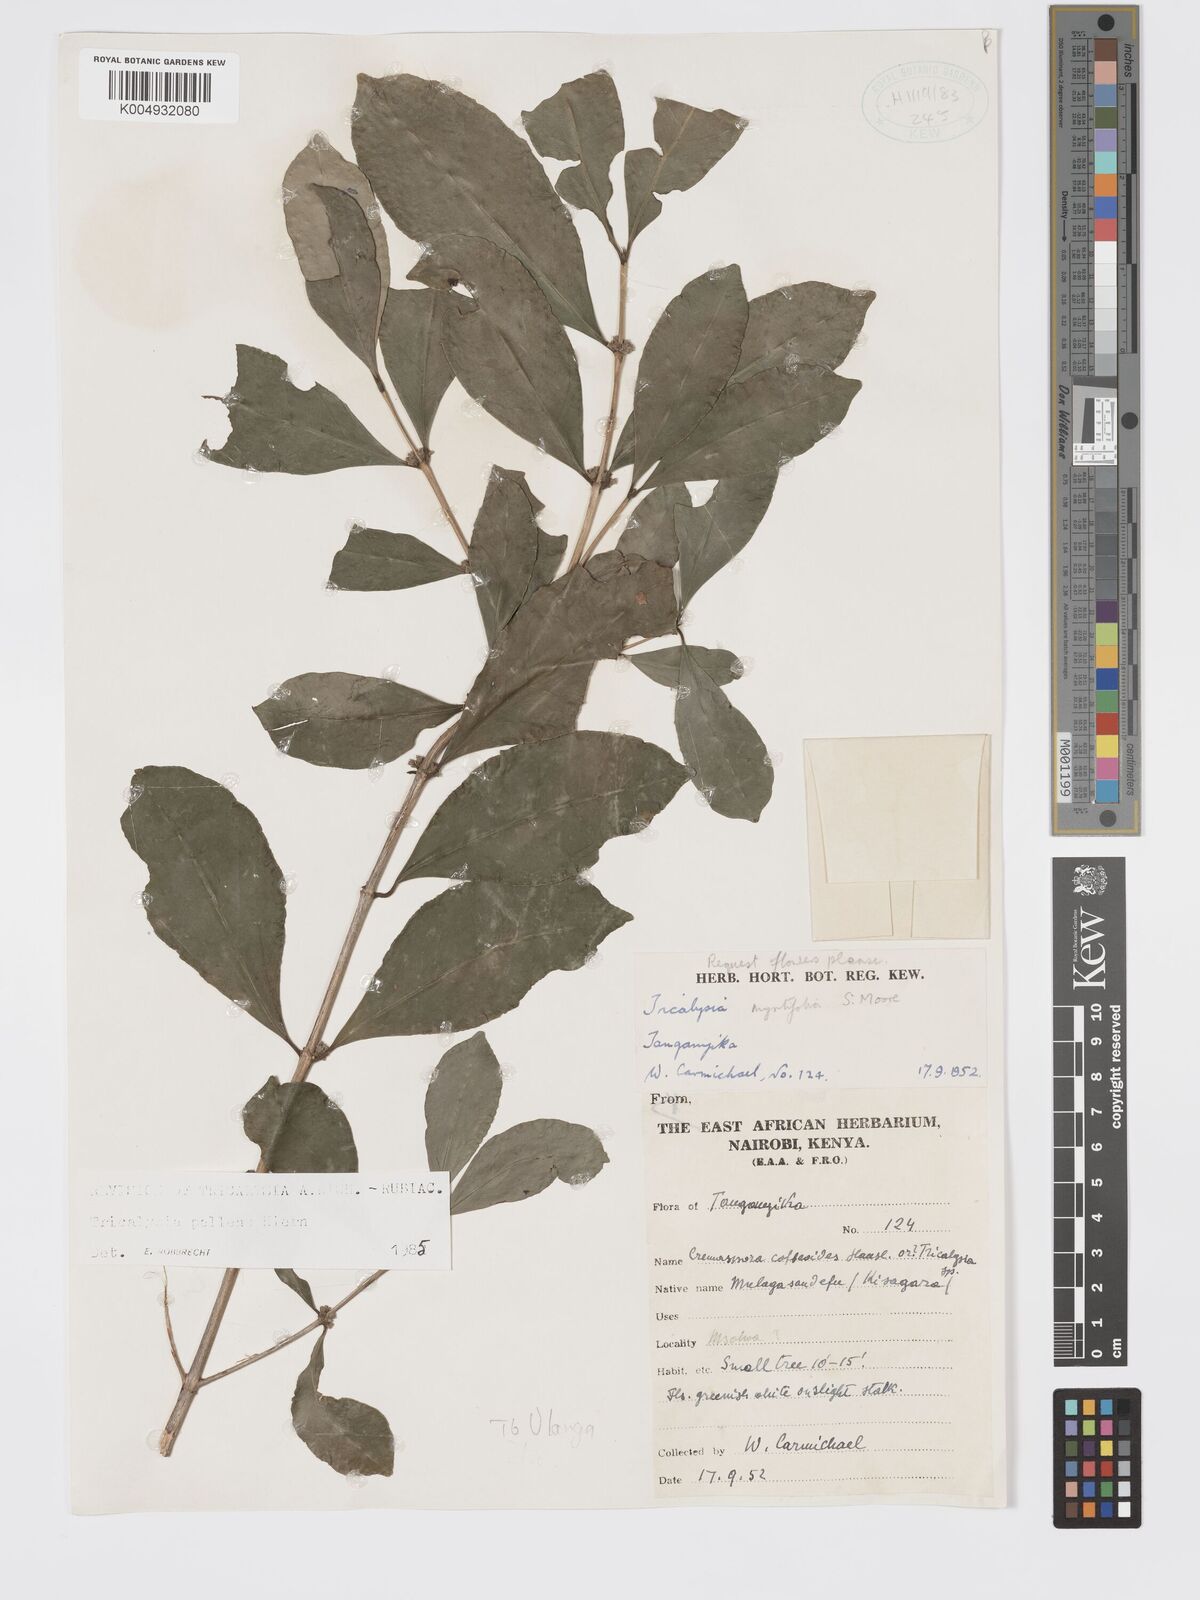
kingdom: Plantae
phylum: Tracheophyta
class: Magnoliopsida
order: Gentianales
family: Rubiaceae
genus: Tricalysia
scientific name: Tricalysia pallens
